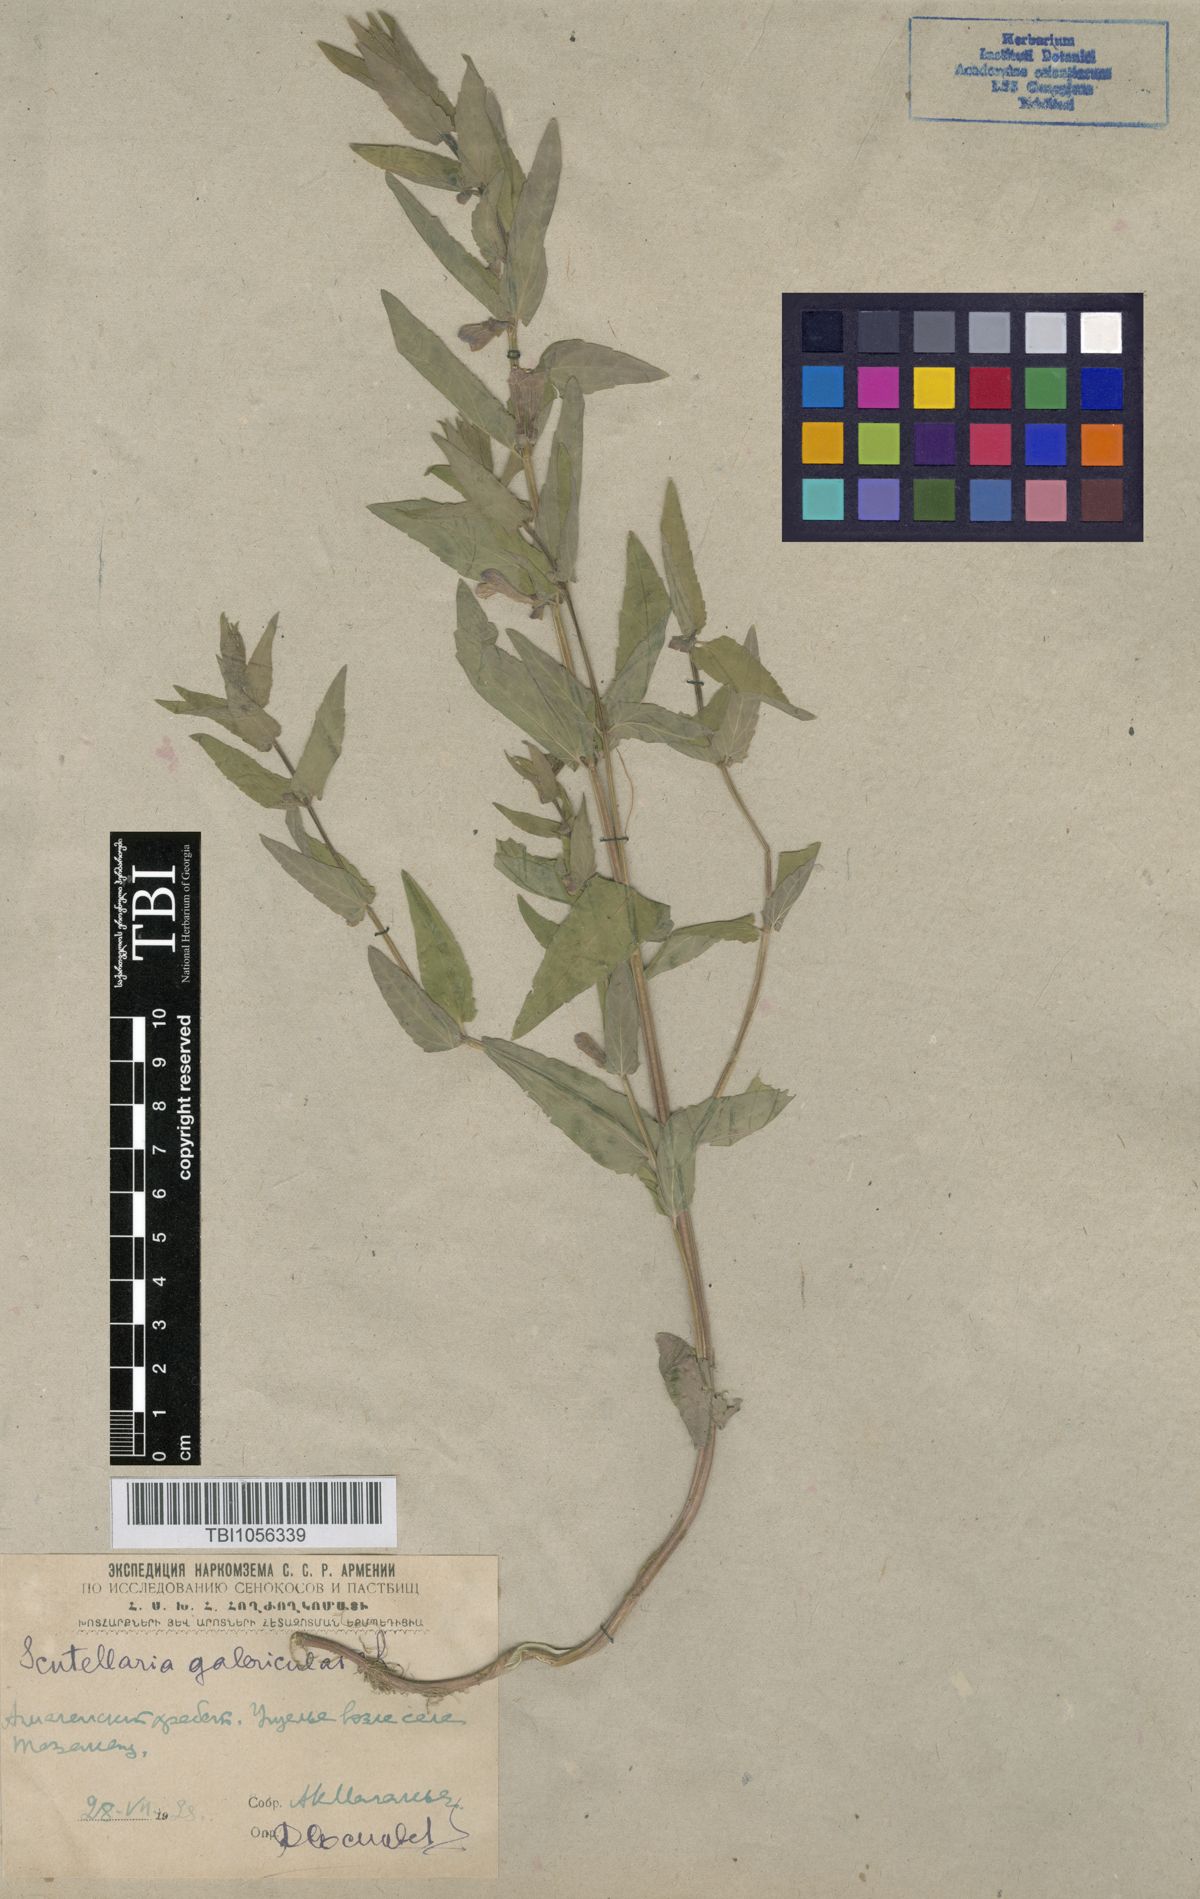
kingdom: Plantae
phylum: Tracheophyta
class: Magnoliopsida
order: Lamiales
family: Lamiaceae
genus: Scutellaria
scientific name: Scutellaria galericulata
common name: Skullcap
